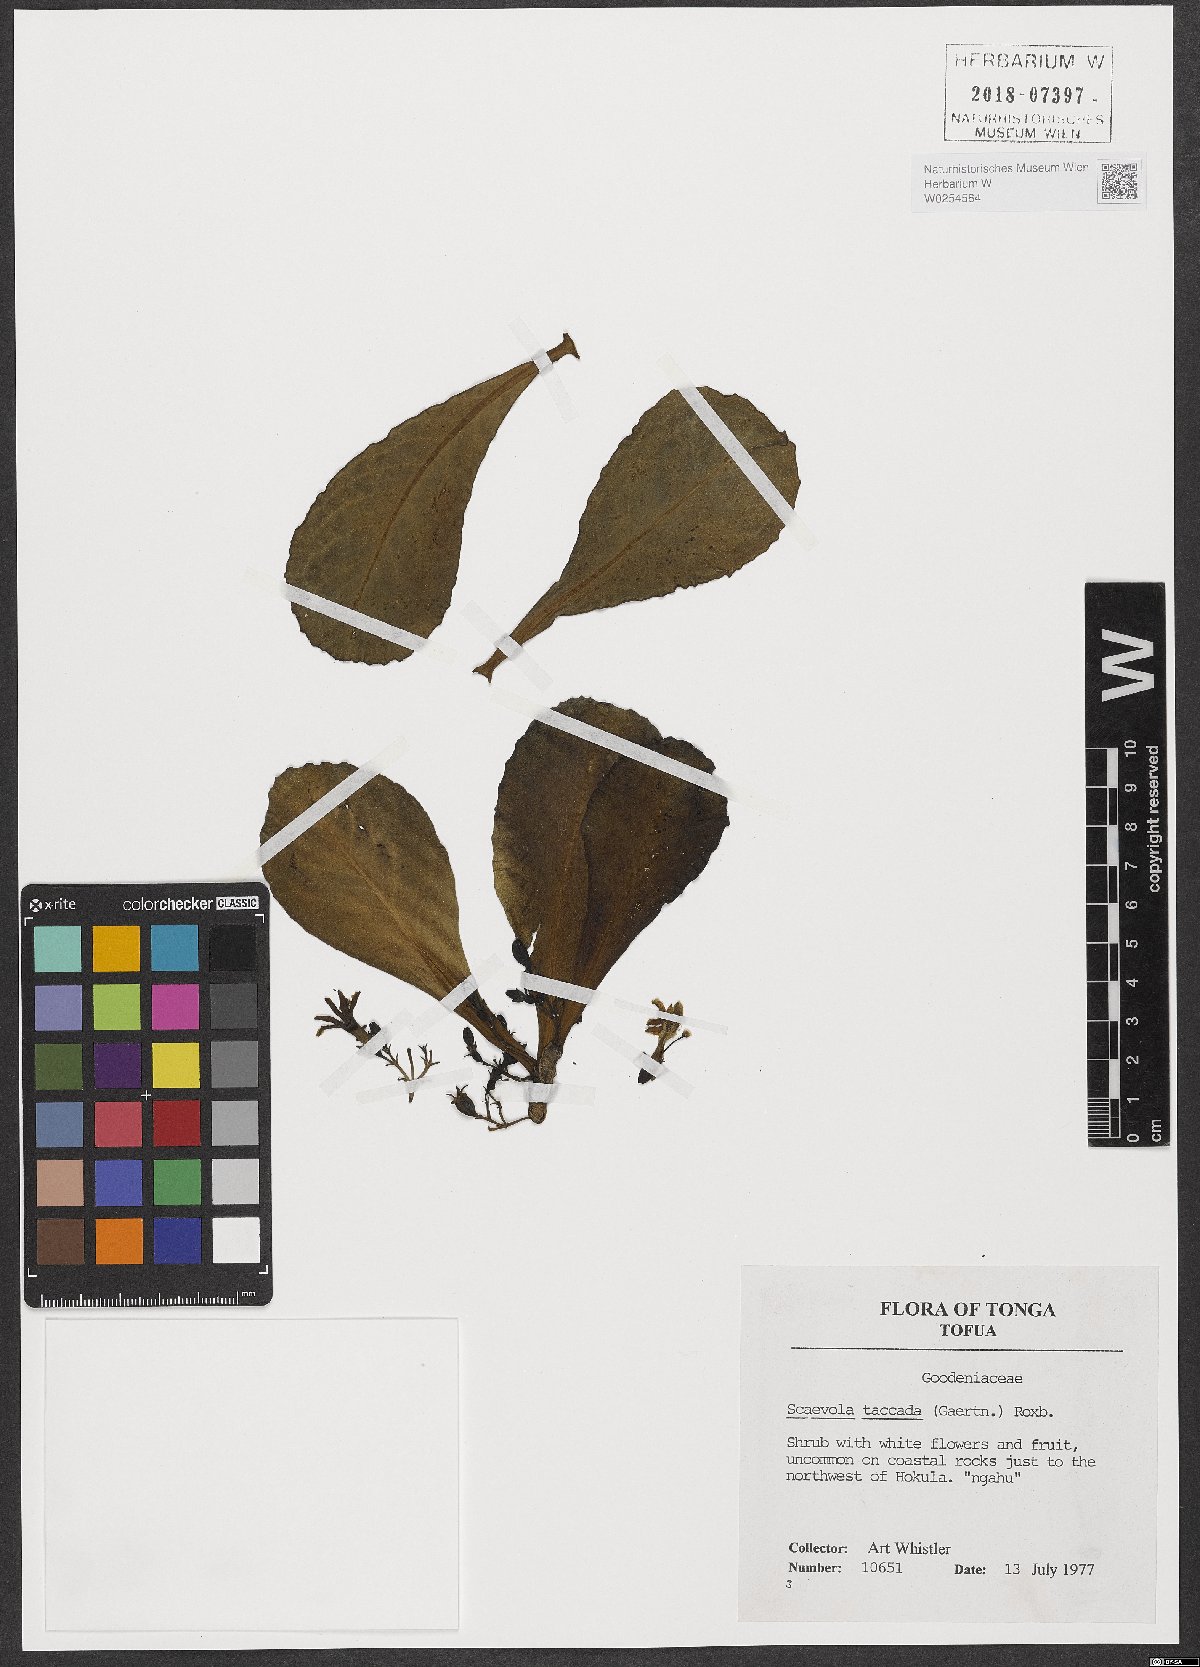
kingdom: Plantae
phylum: Tracheophyta
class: Magnoliopsida
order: Asterales
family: Goodeniaceae
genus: Scaevola
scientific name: Scaevola taccada
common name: Sea lettucetree
